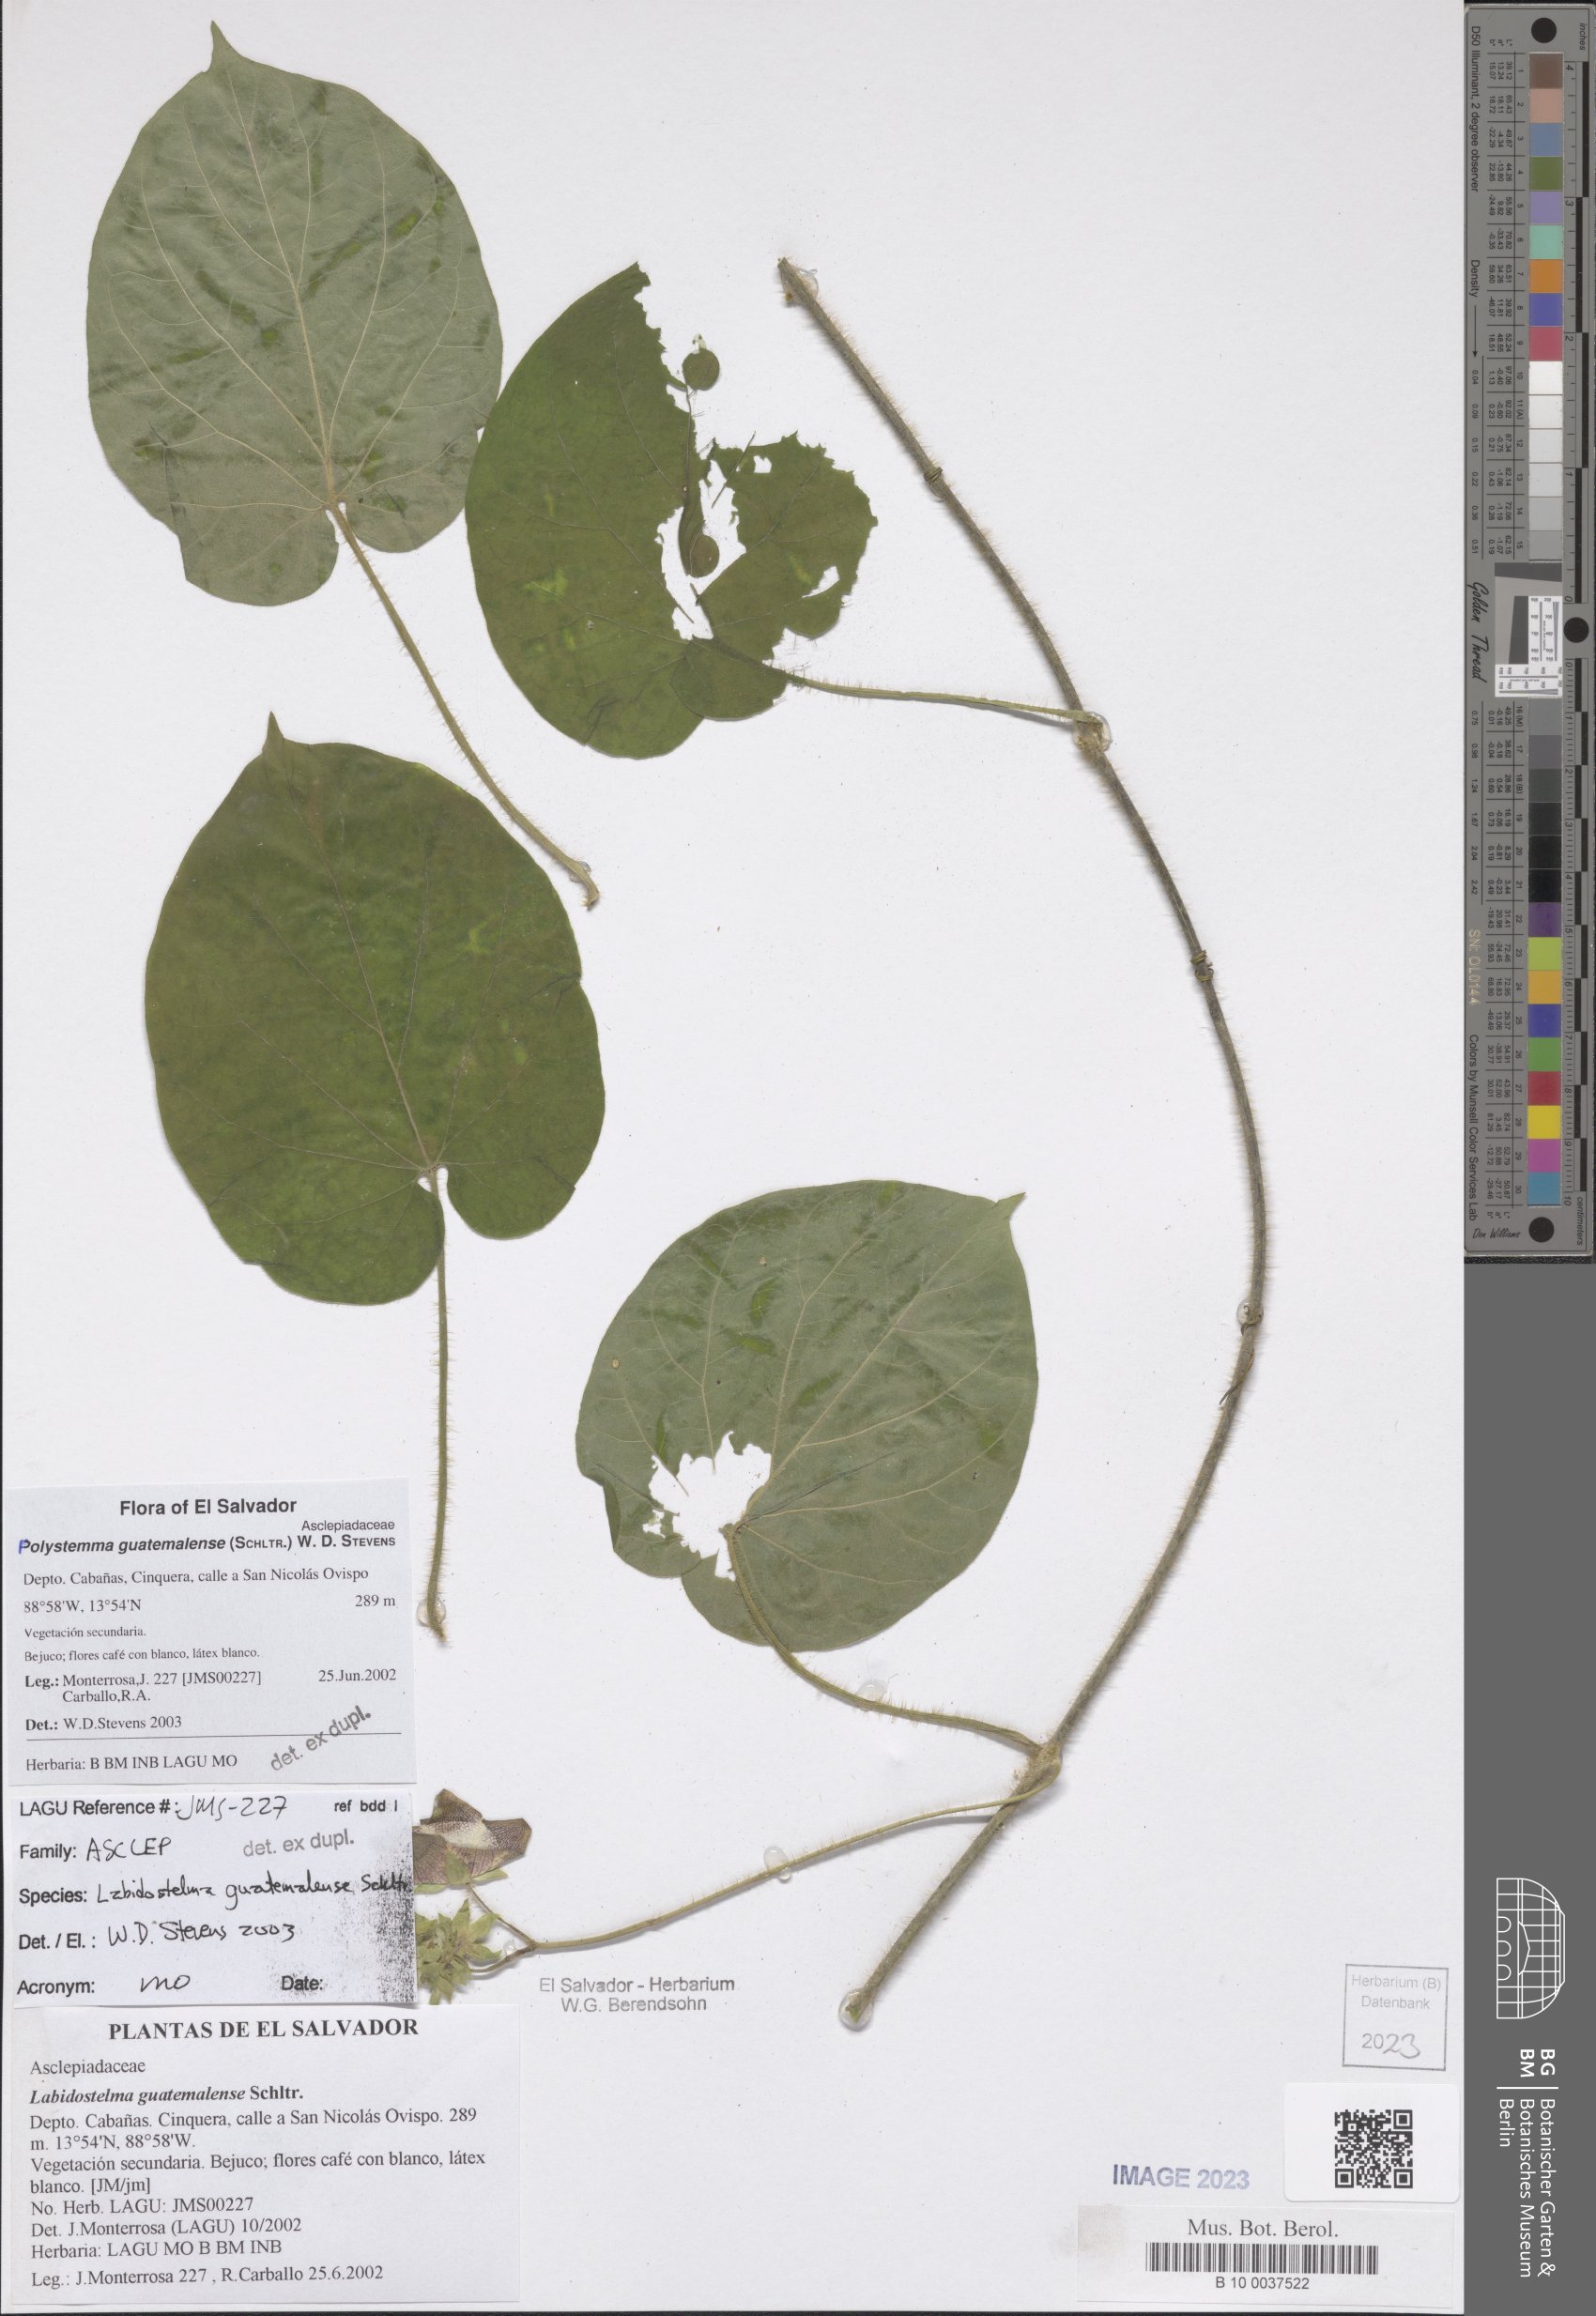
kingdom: Plantae
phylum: Tracheophyta
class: Magnoliopsida
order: Gentianales
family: Apocynaceae
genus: Polystemma
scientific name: Polystemma guatemalense
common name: Arborescente rattan
